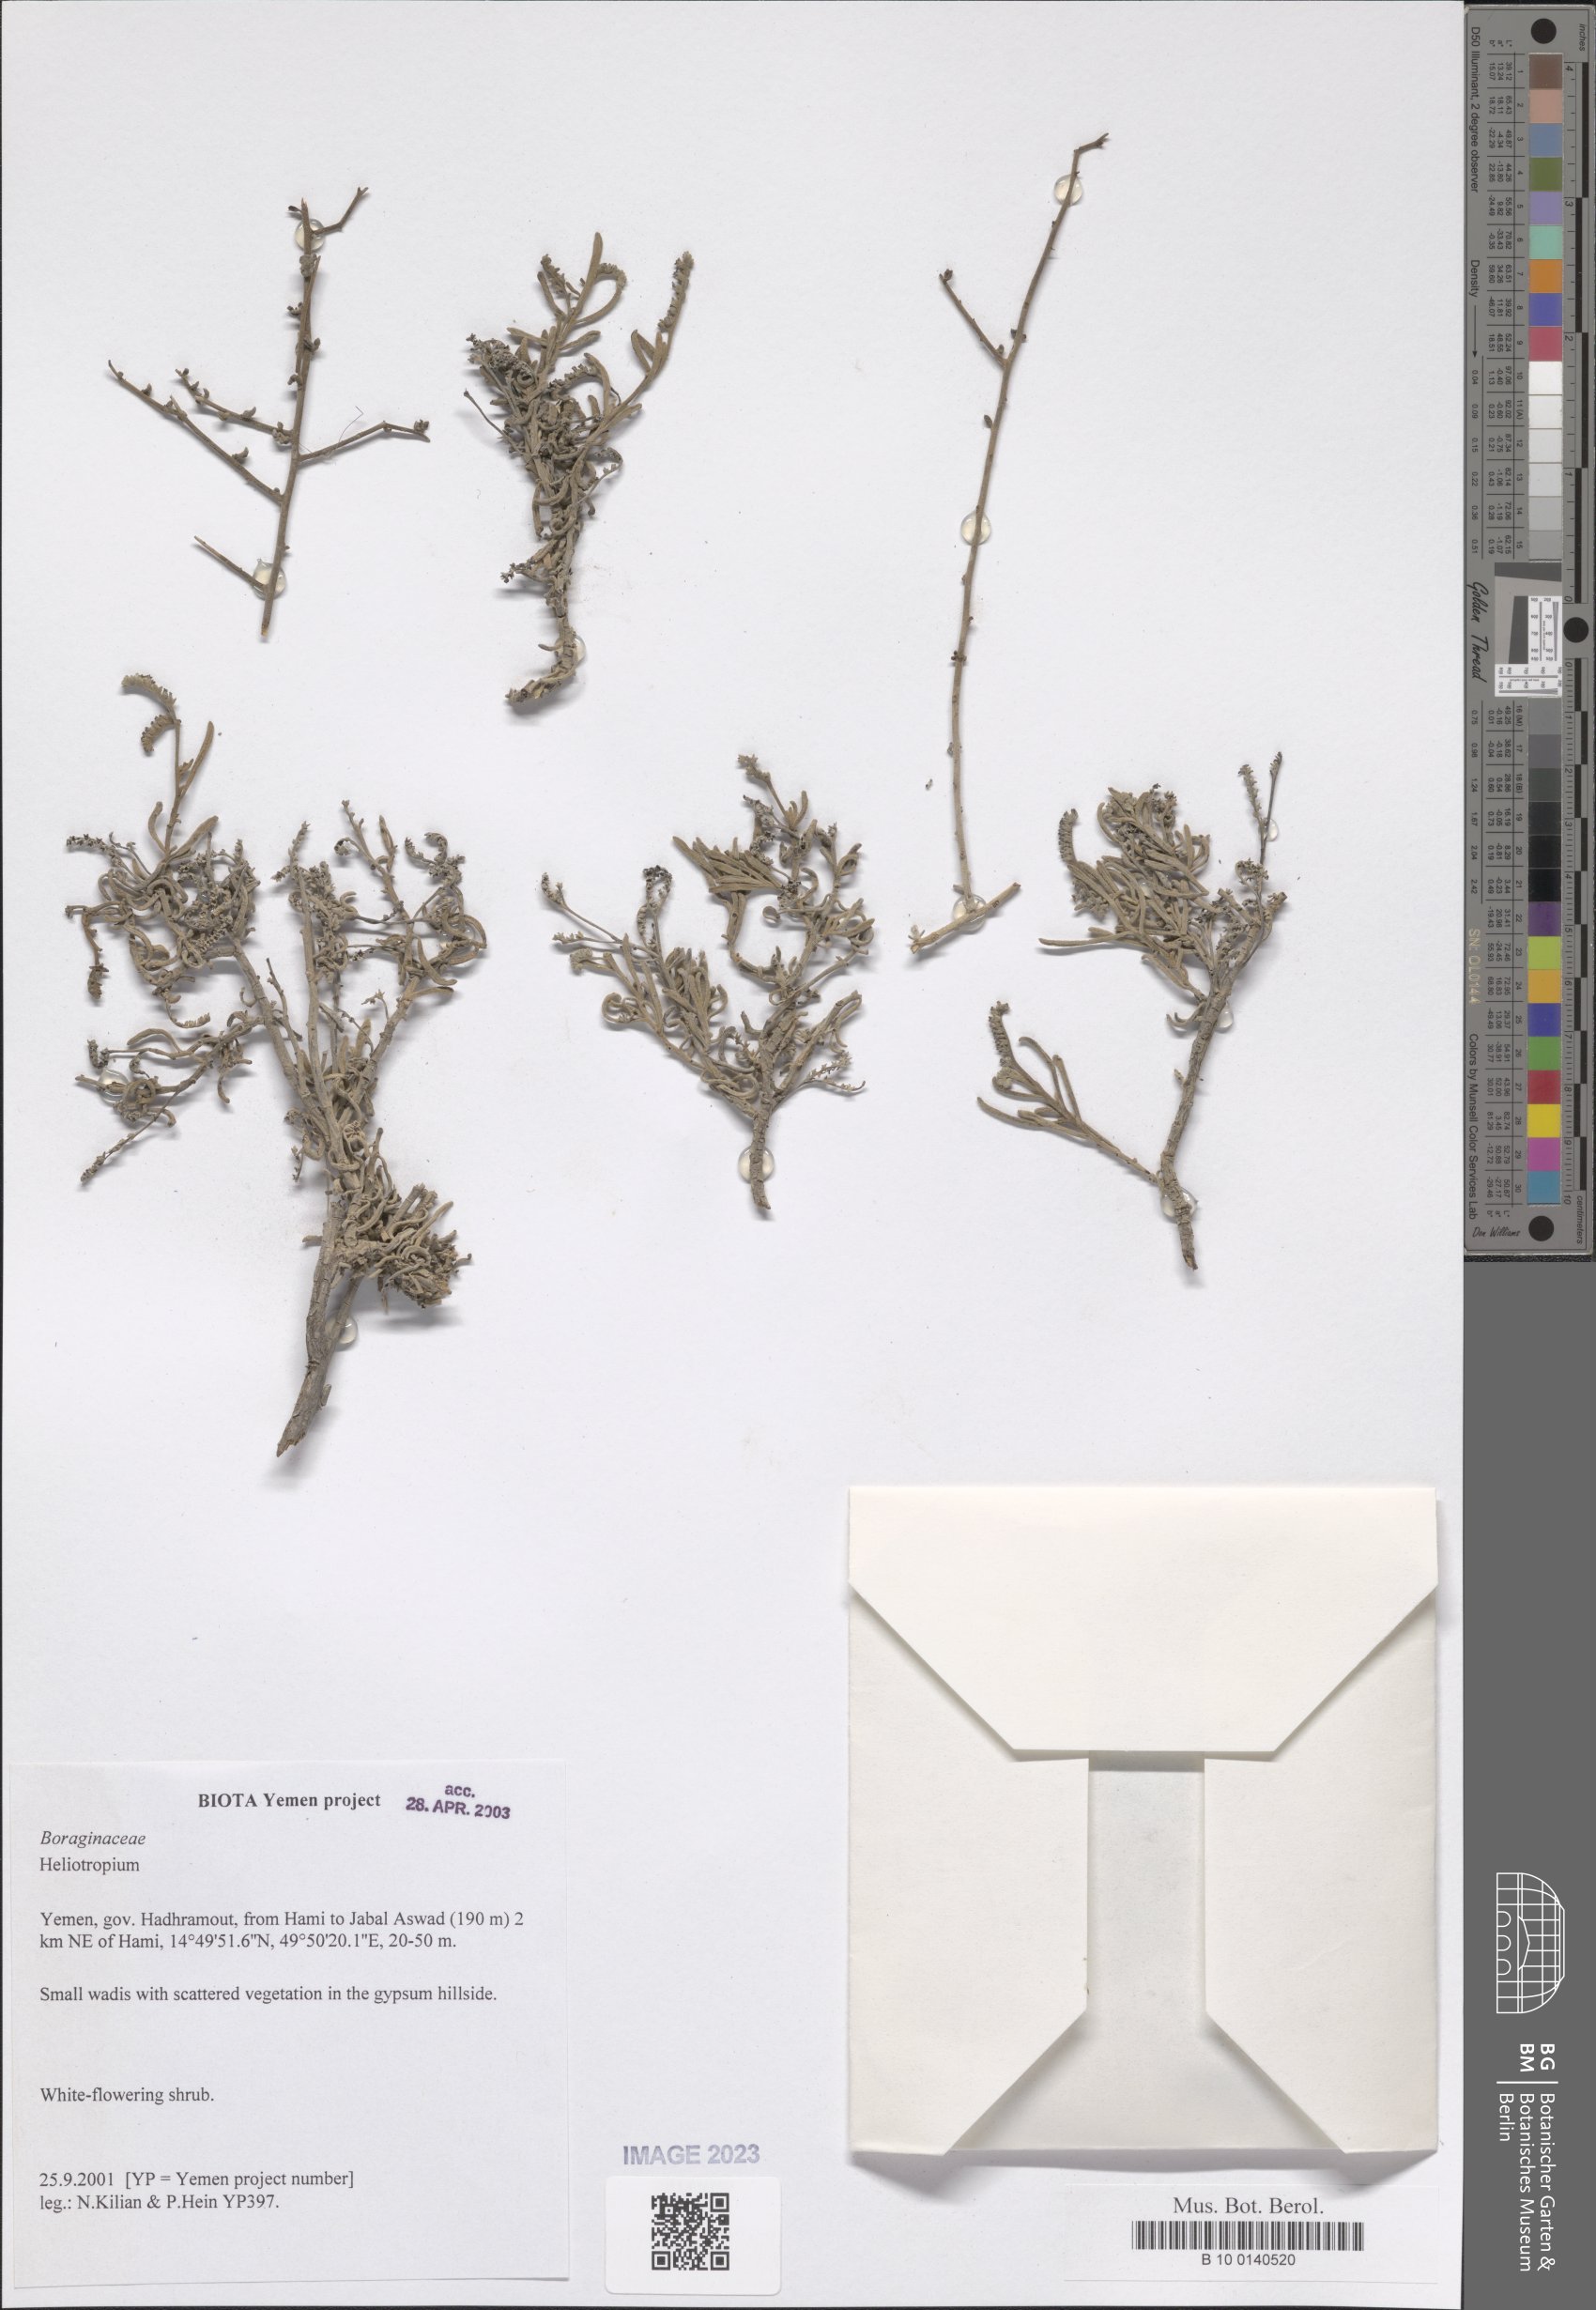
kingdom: Plantae
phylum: Tracheophyta
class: Magnoliopsida
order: Boraginales
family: Heliotropiaceae
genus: Heliotropium
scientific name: Heliotropium
